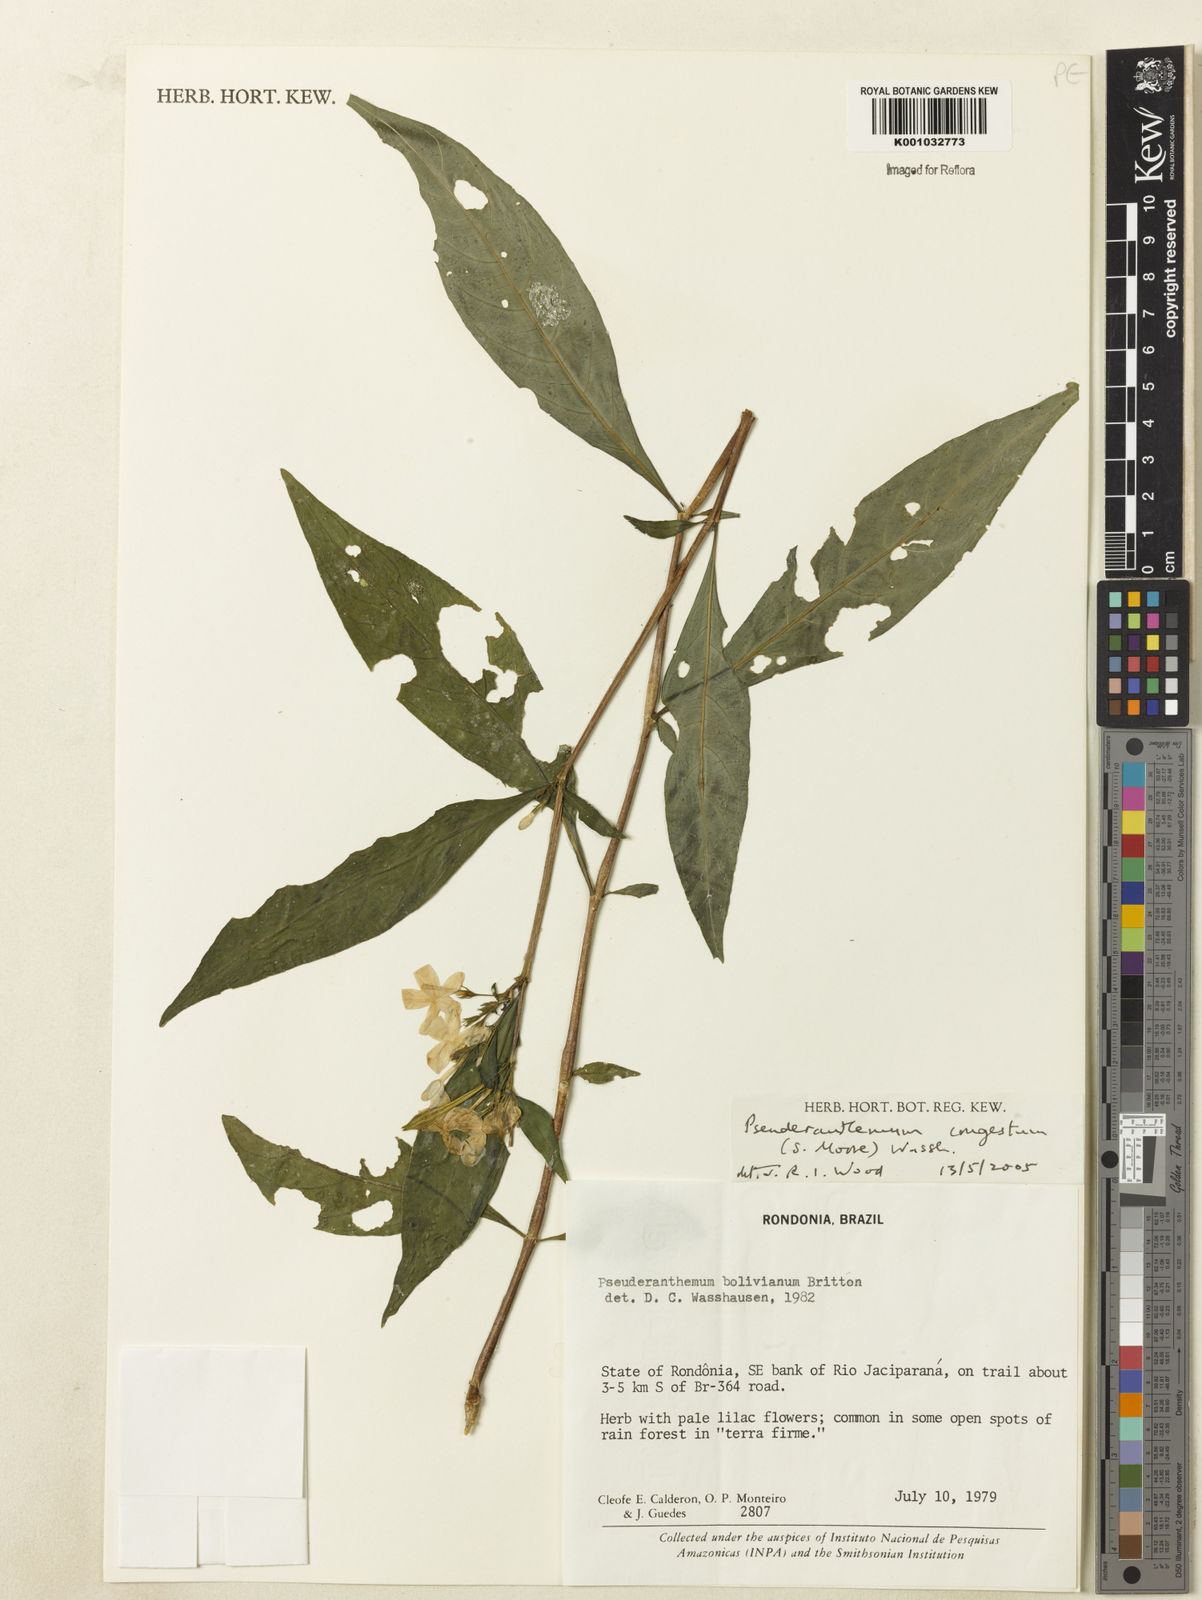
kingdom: Plantae
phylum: Tracheophyta
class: Magnoliopsida
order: Lamiales
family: Acanthaceae
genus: Pseuderanthemum
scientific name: Pseuderanthemum
